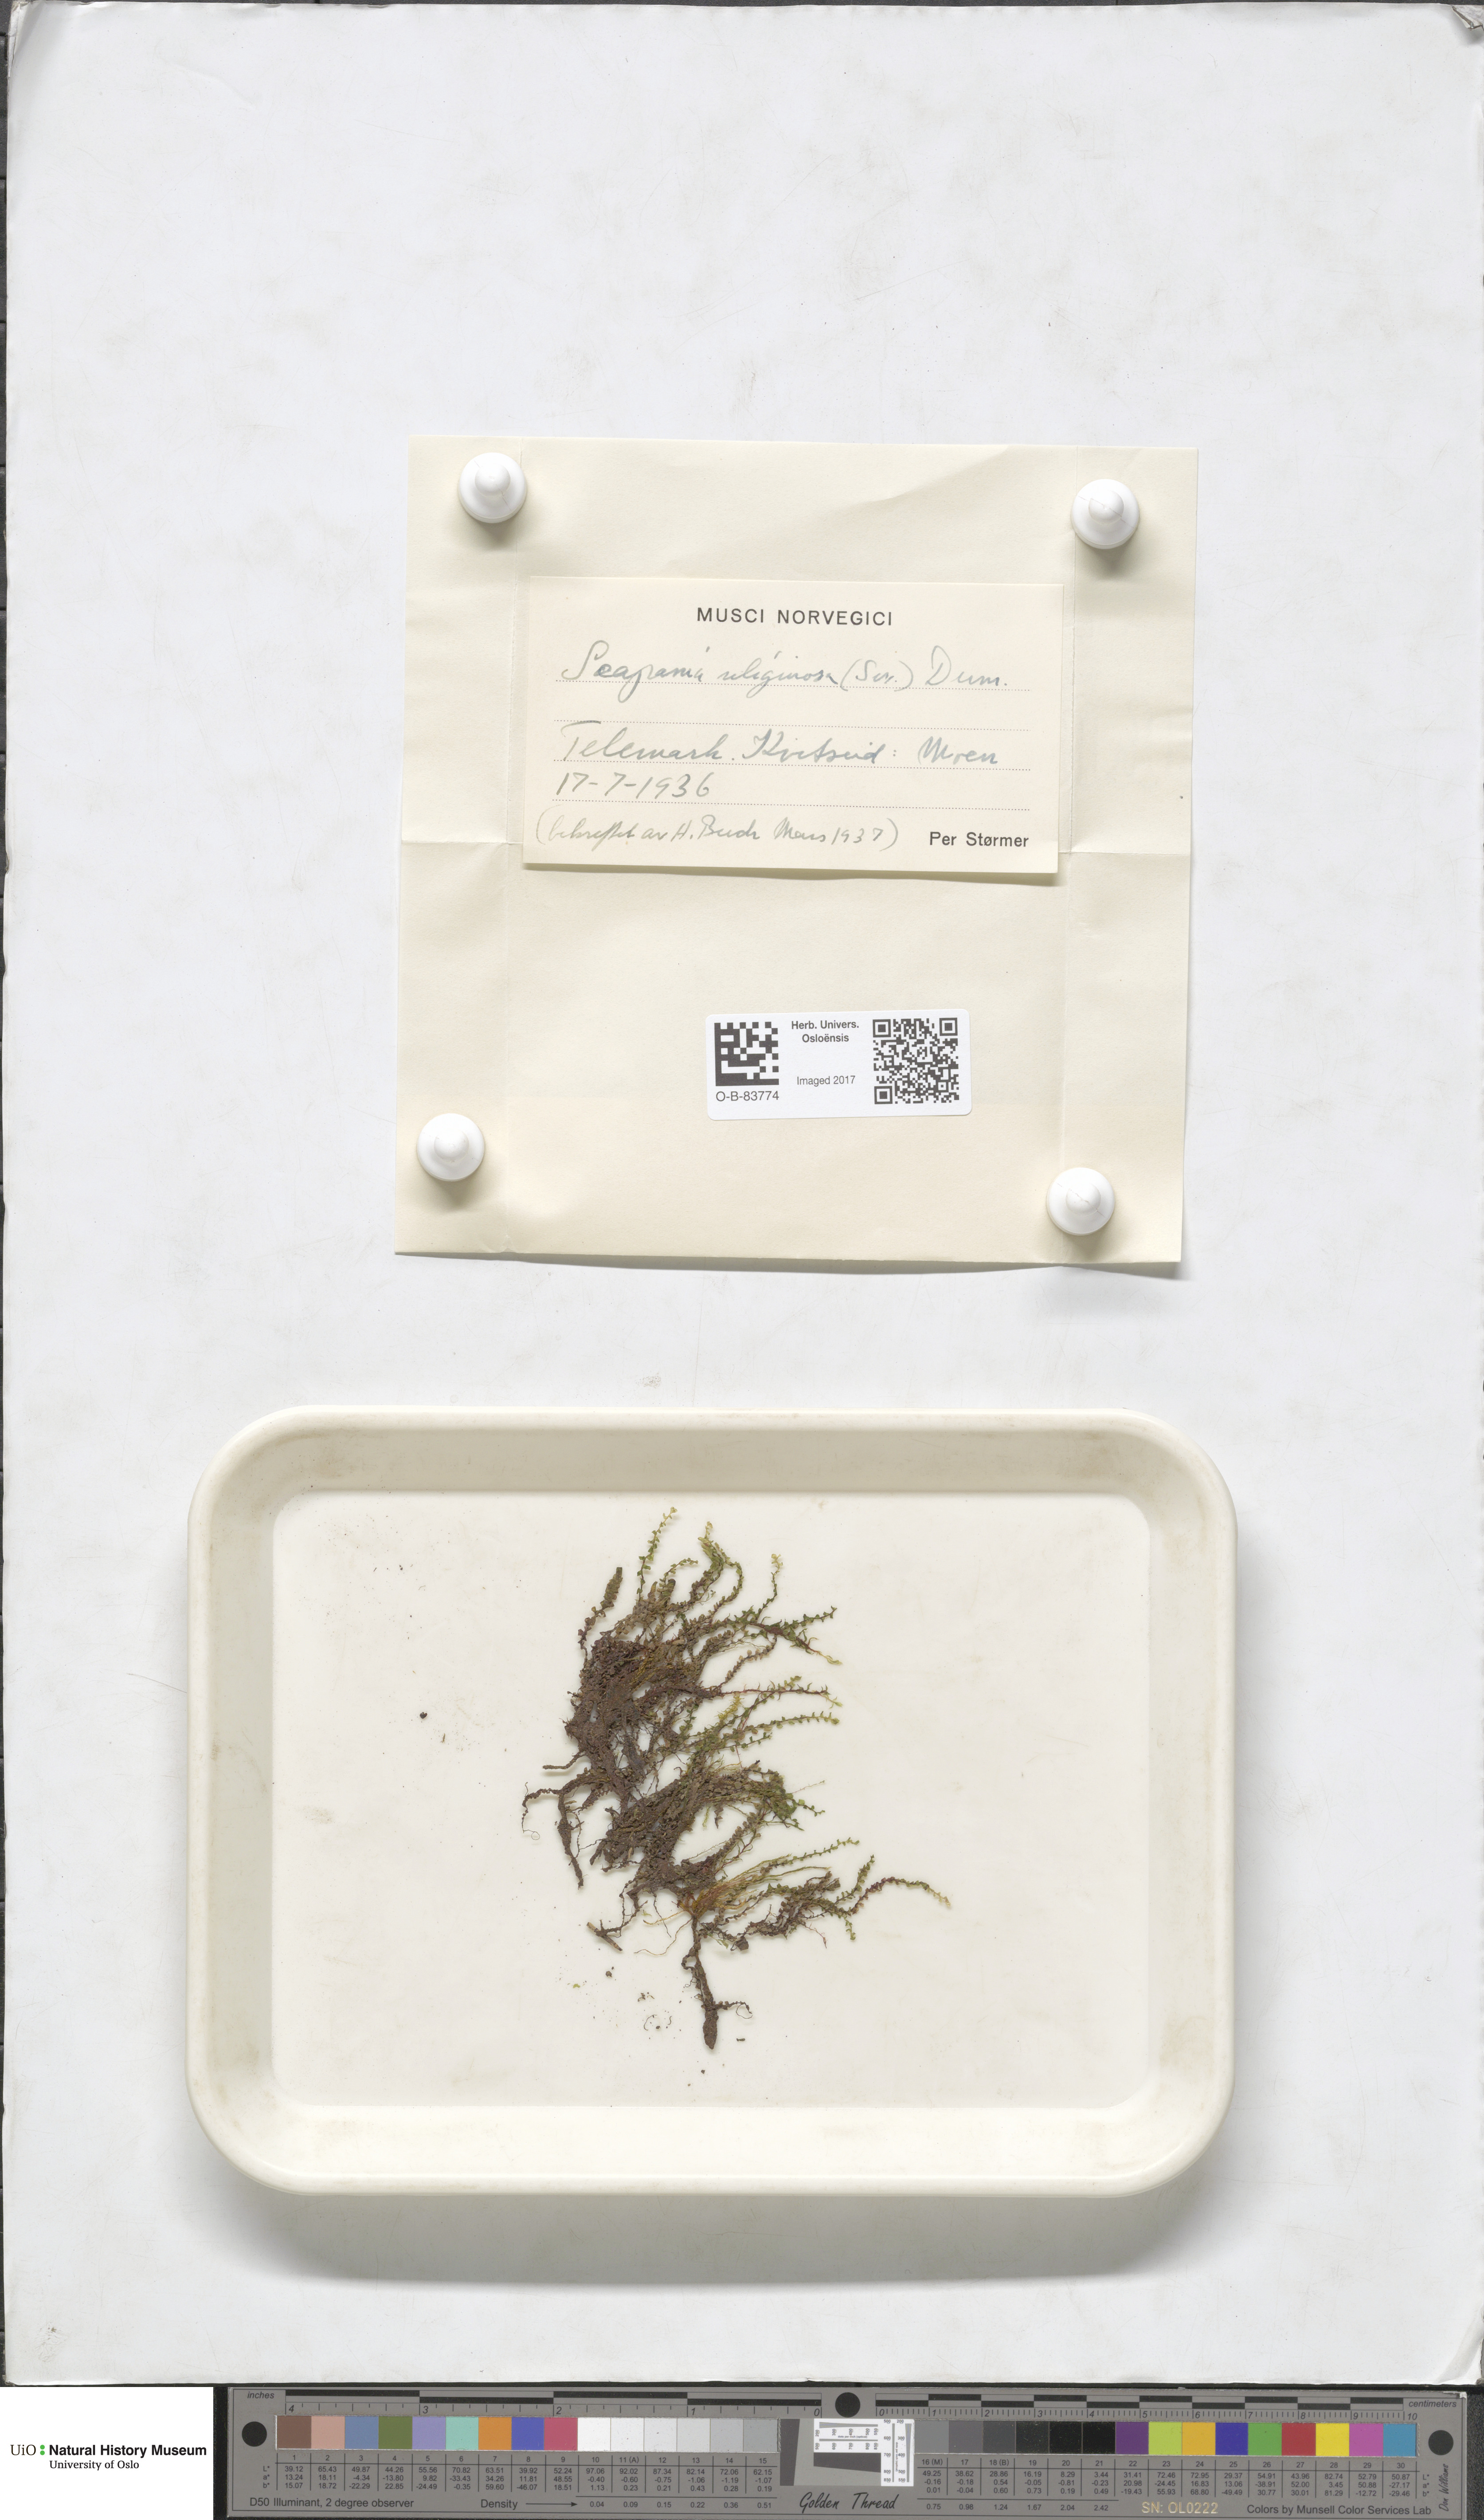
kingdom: Plantae
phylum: Marchantiophyta
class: Jungermanniopsida
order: Jungermanniales
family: Scapaniaceae
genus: Scapania
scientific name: Scapania uliginosa
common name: Marsh earwort
